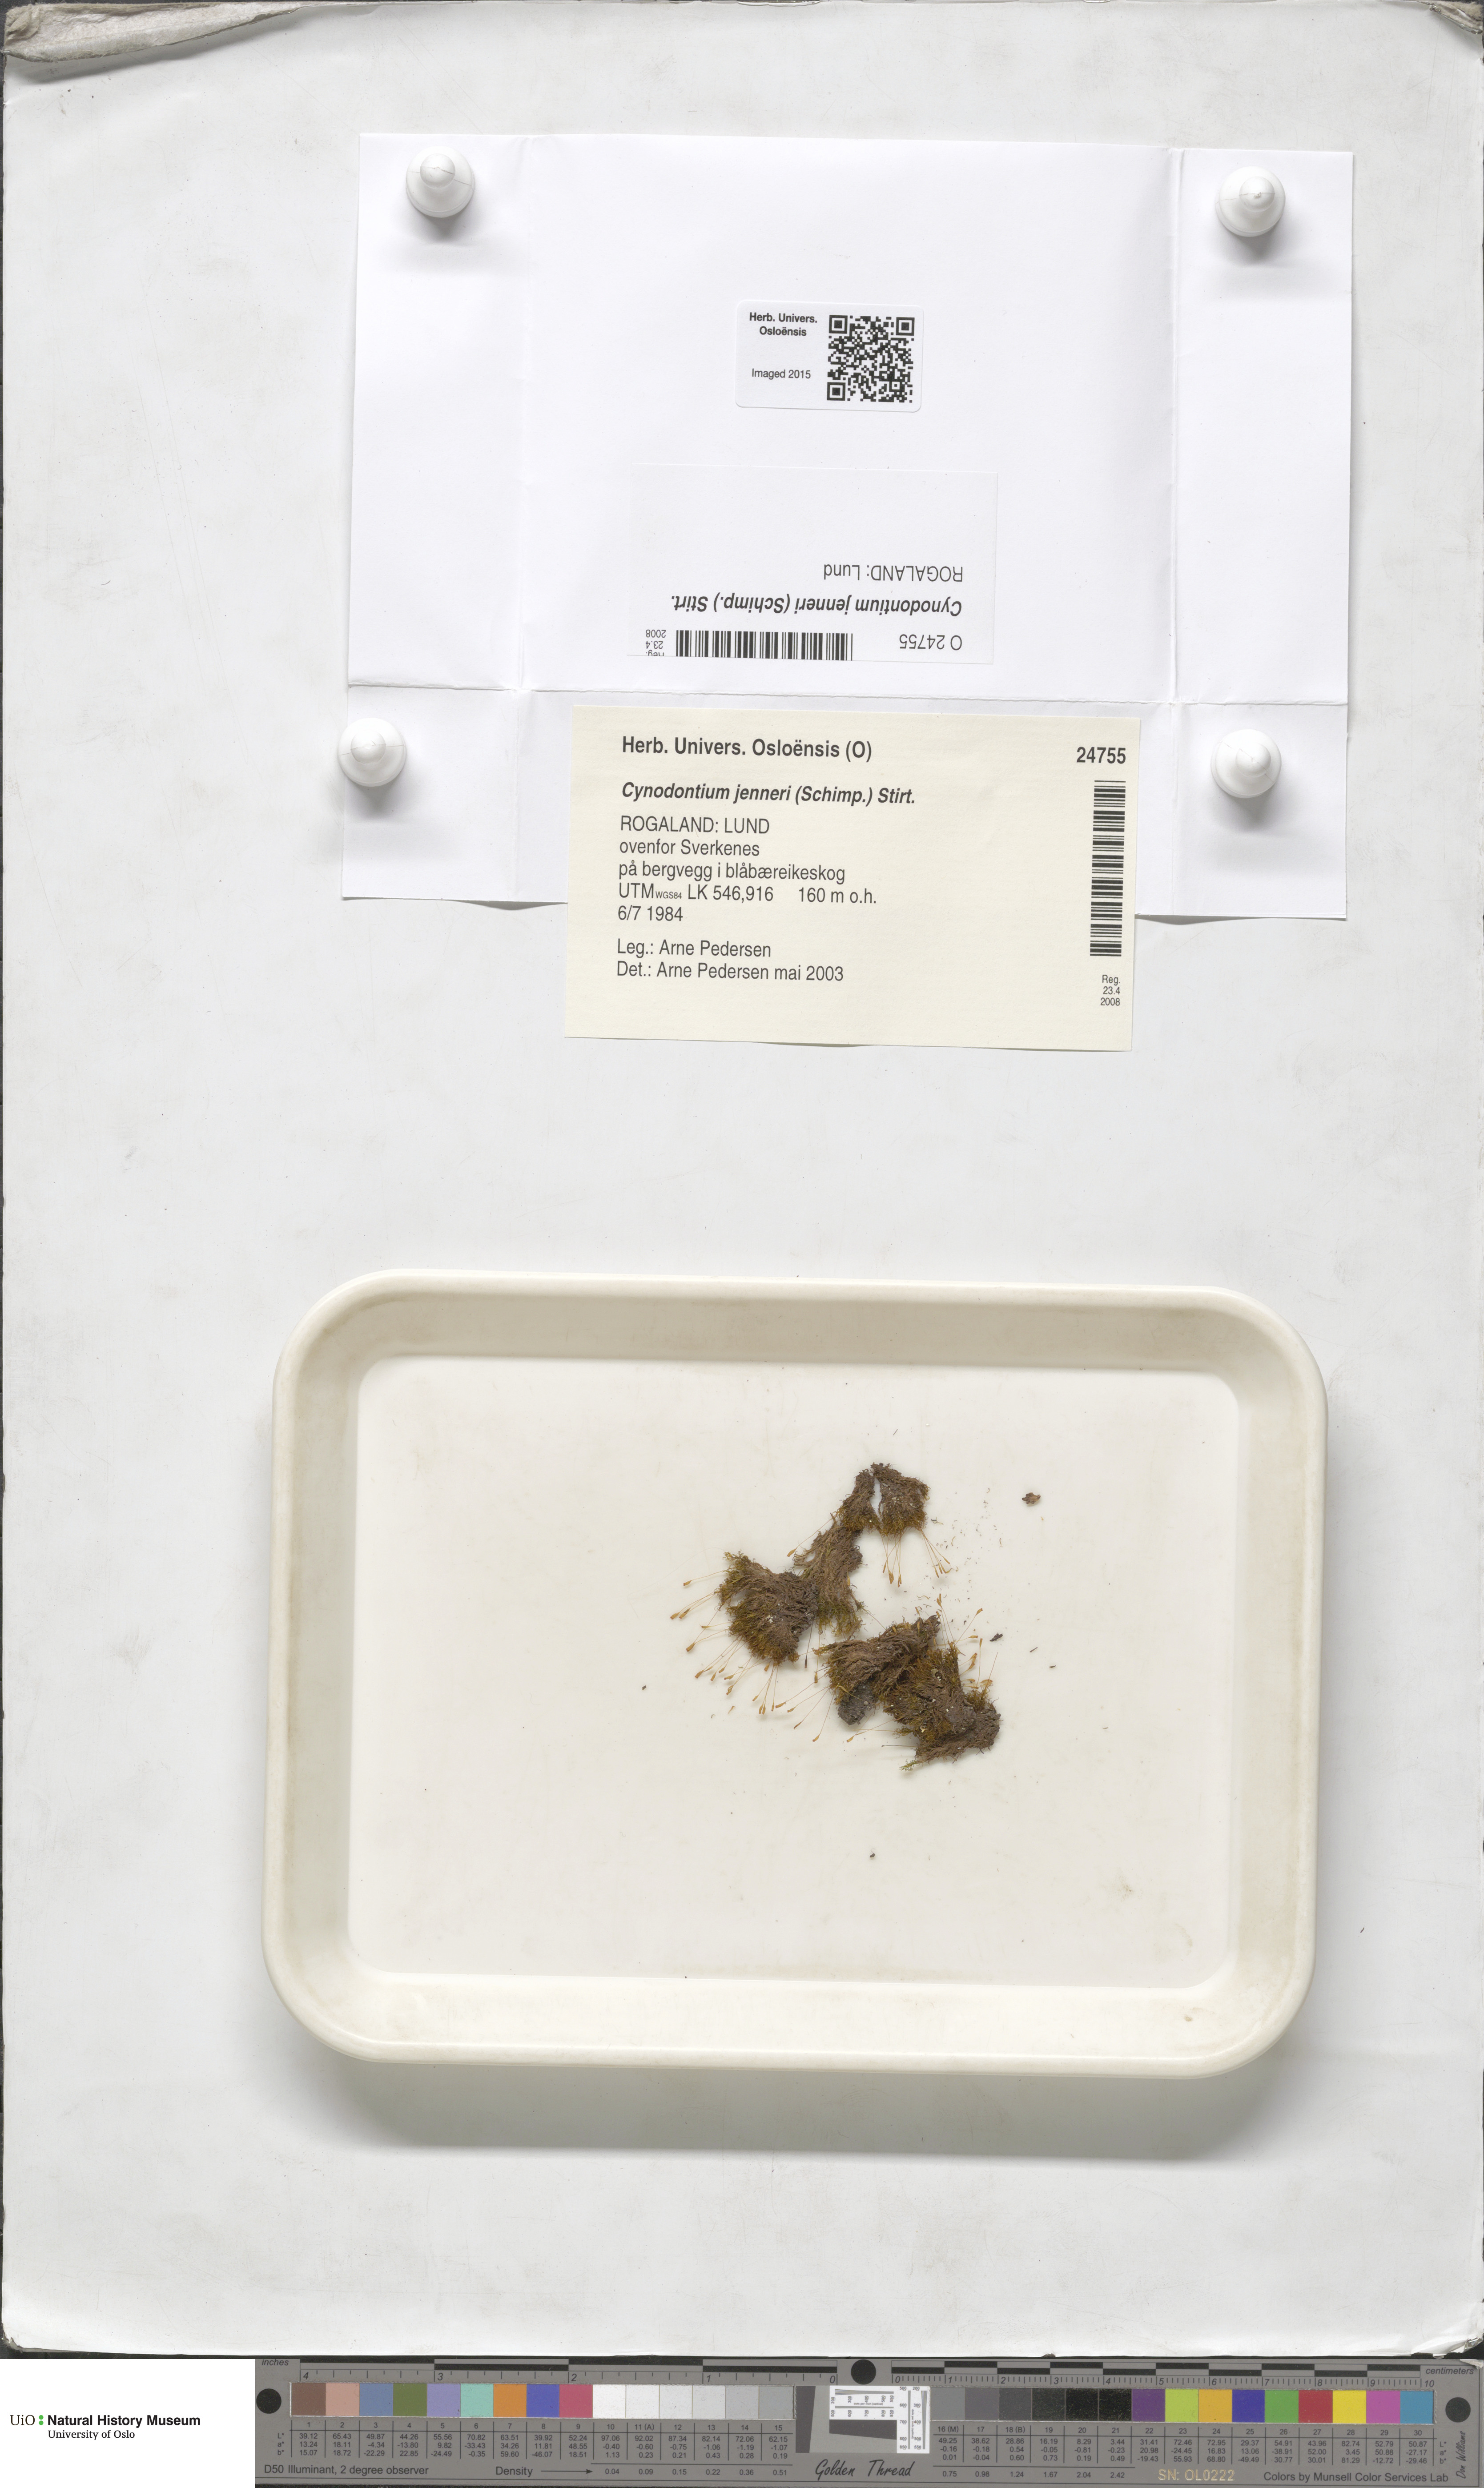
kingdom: Plantae
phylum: Bryophyta
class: Bryopsida
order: Dicranales
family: Rhabdoweisiaceae
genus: Cynodontium
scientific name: Cynodontium jenneri
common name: Jenner's dog-tooth
